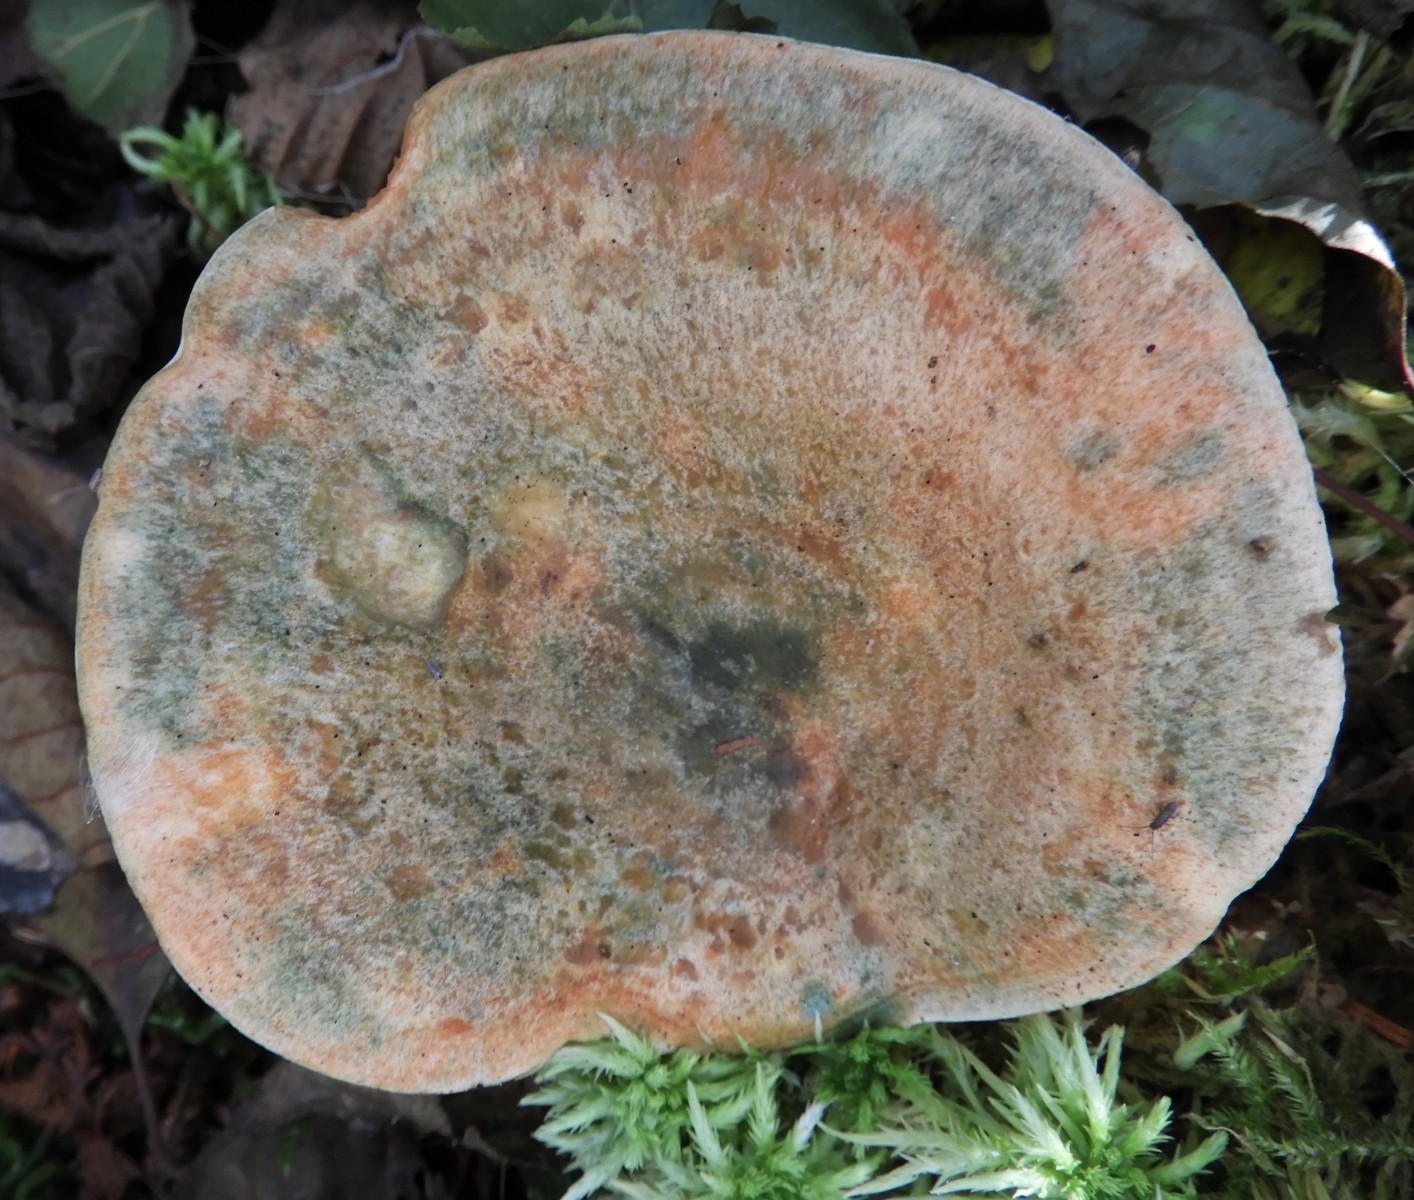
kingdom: Fungi
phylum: Basidiomycota
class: Agaricomycetes
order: Russulales
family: Russulaceae
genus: Lactarius
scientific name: Lactarius deterrimus
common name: gran-mælkehat
